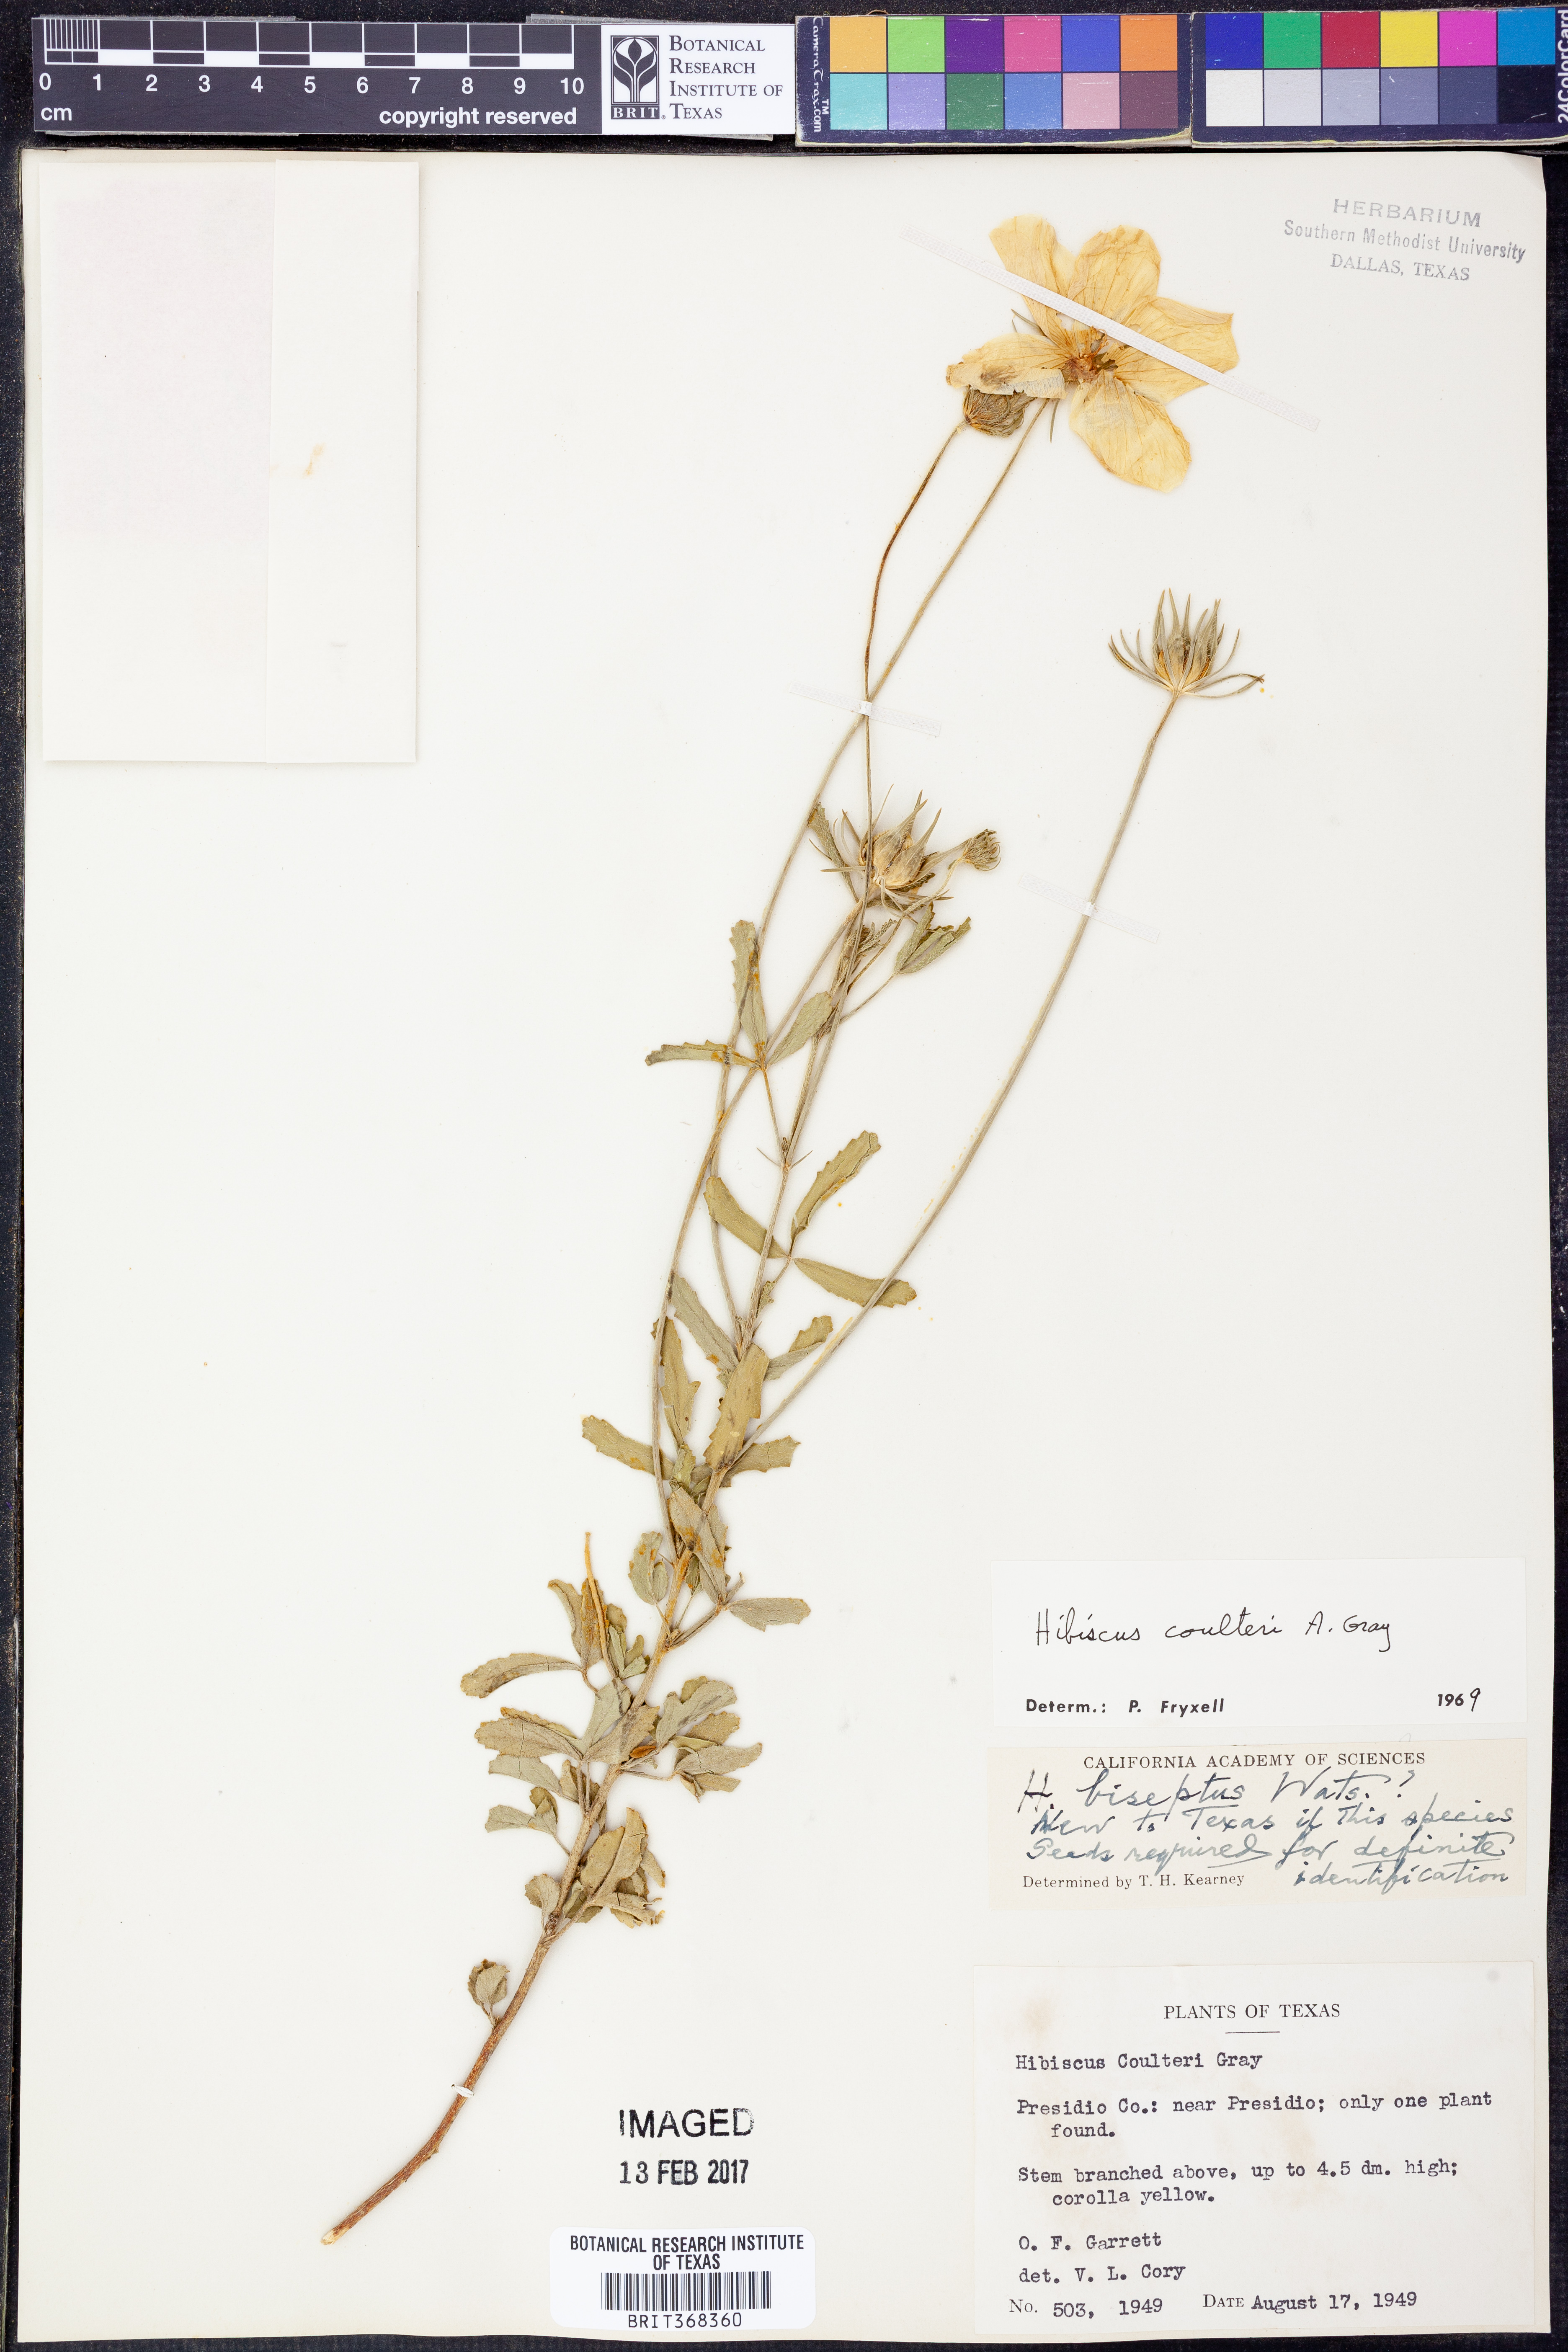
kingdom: Plantae
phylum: Tracheophyta
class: Magnoliopsida
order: Malvales
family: Malvaceae
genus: Hibiscus
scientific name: Hibiscus coulteri
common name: Desert rose-mallow
